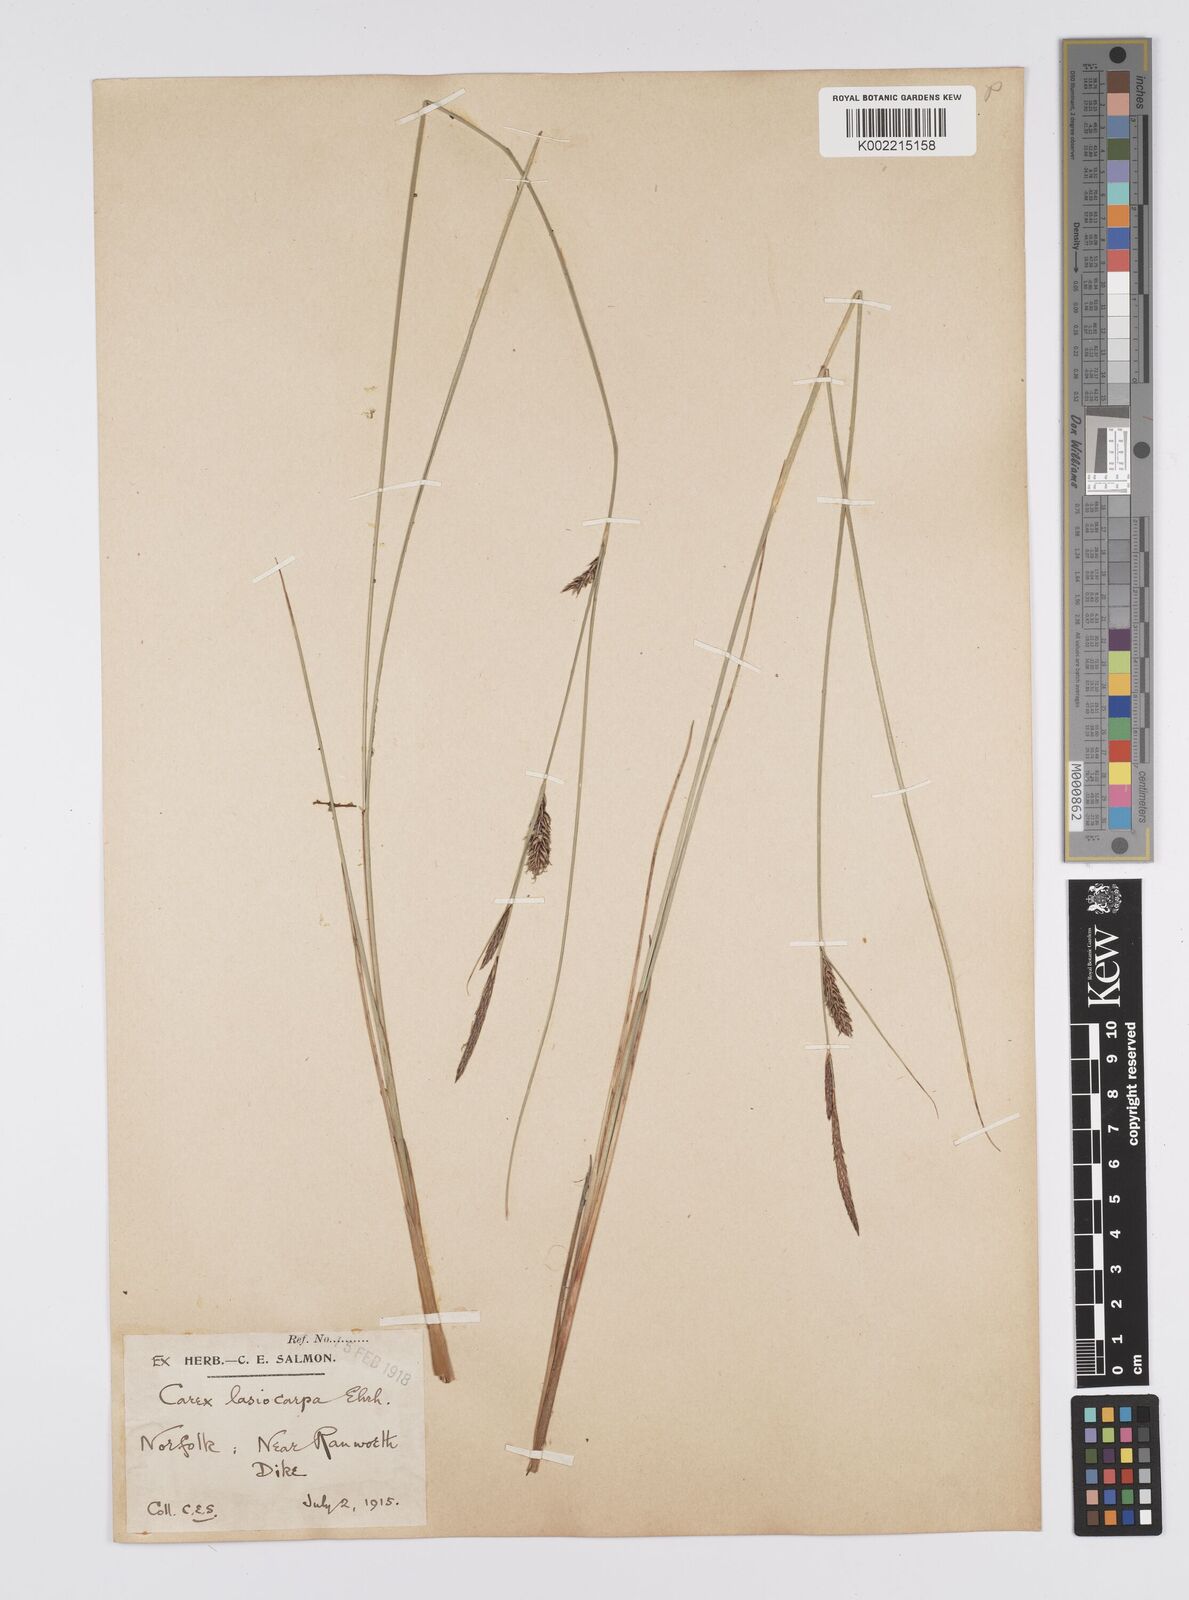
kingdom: Plantae
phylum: Tracheophyta
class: Liliopsida
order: Poales
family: Cyperaceae
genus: Carex
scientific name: Carex lasiocarpa
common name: Slender sedge
